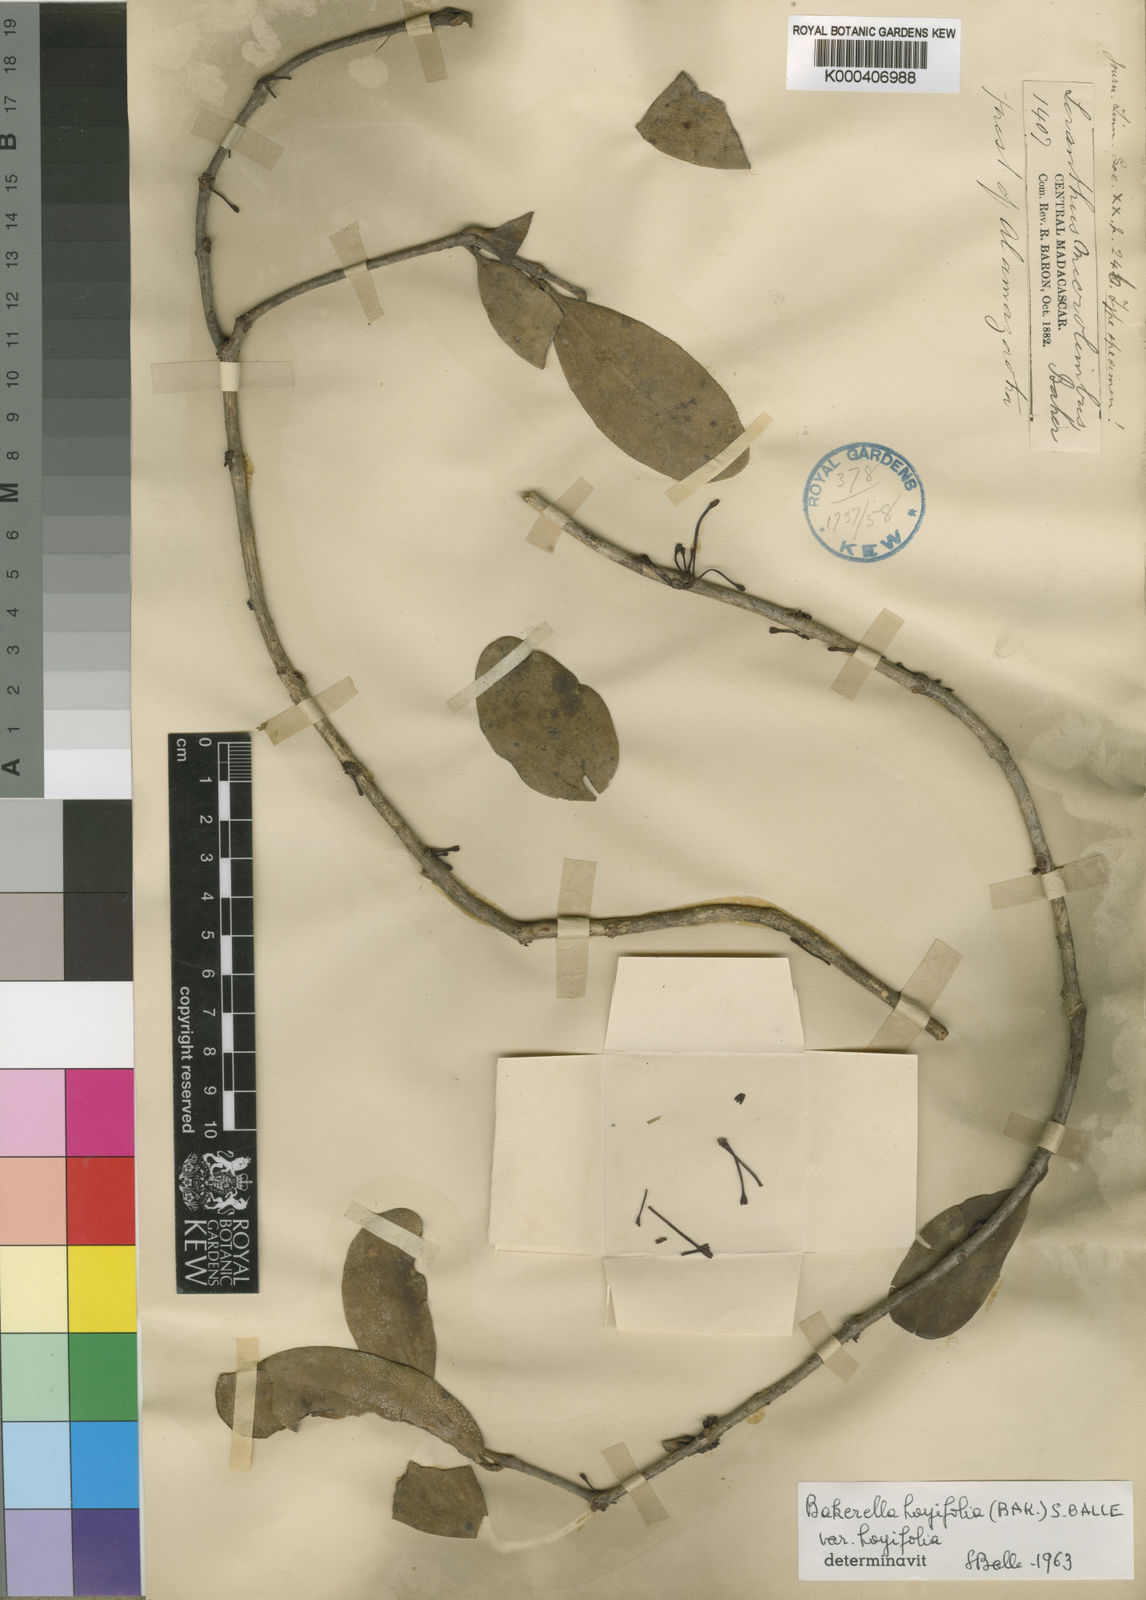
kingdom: Plantae
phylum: Tracheophyta
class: Magnoliopsida
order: Santalales
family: Loranthaceae
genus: Bakerella
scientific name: Bakerella hoyifolia
